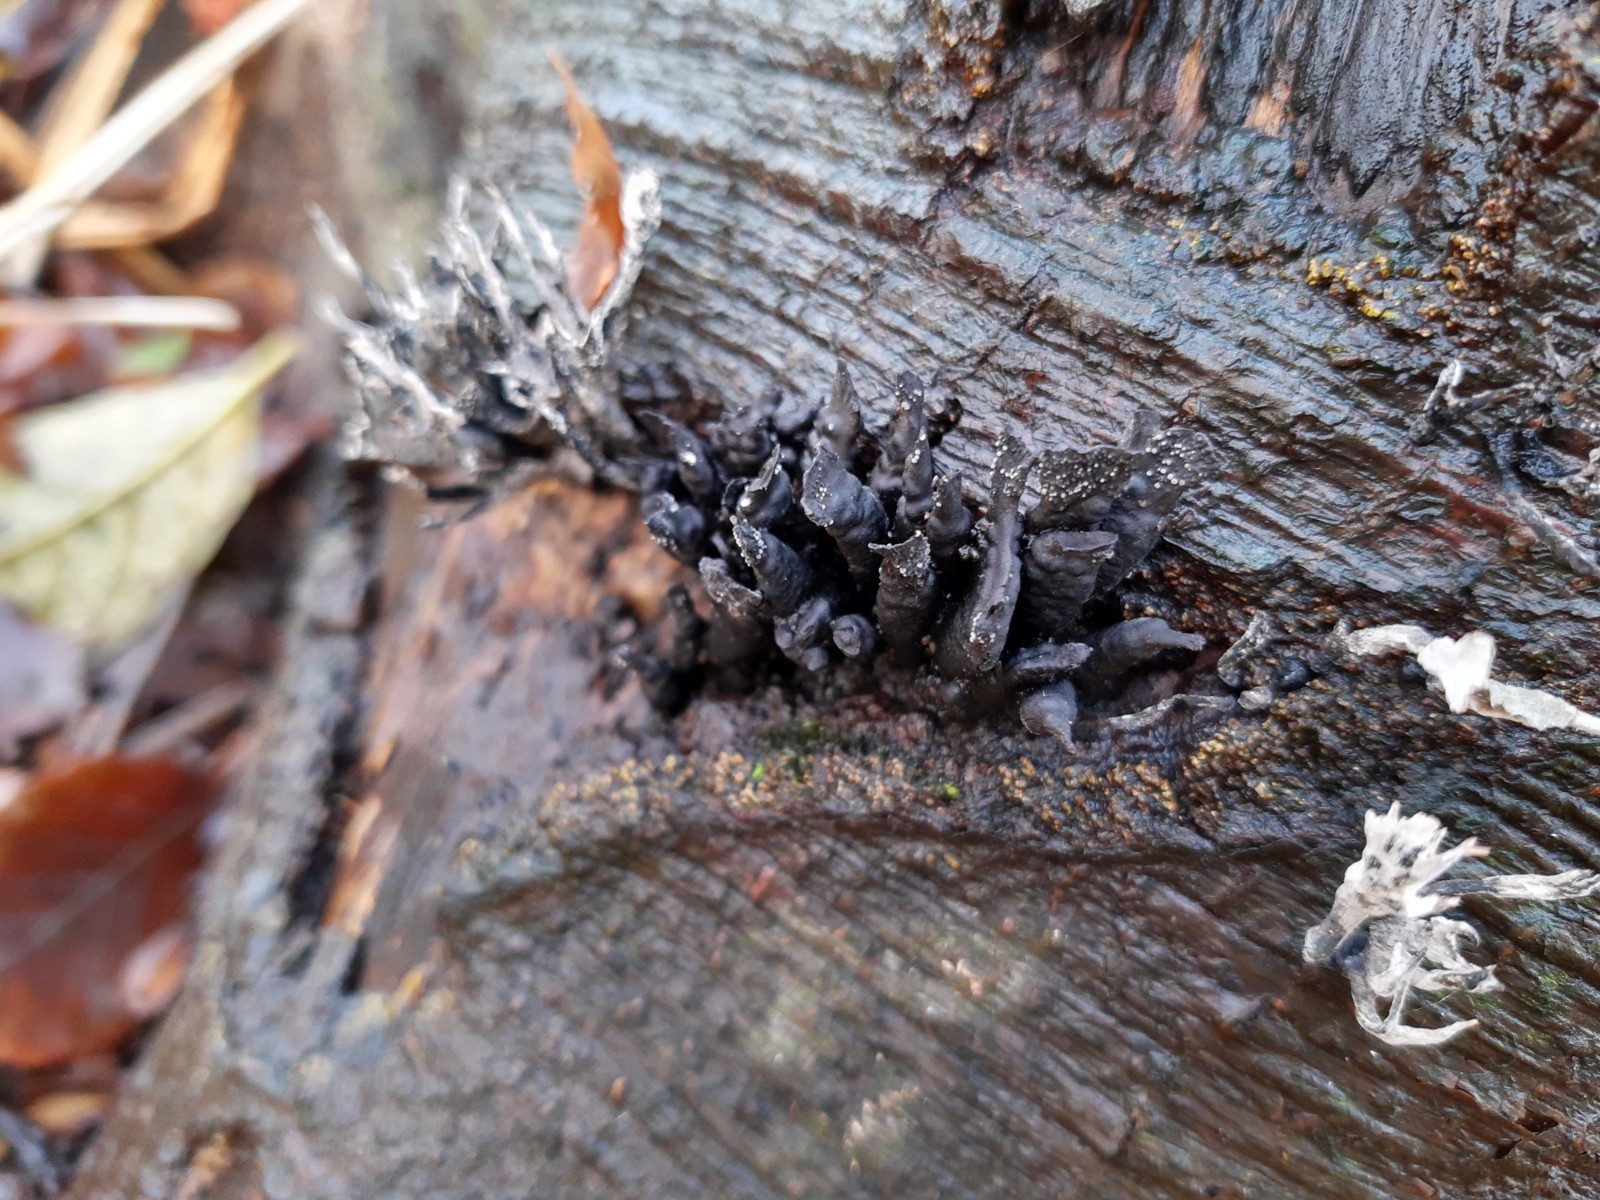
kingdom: Fungi
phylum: Ascomycota
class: Sordariomycetes
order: Xylariales
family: Xylariaceae
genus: Xylaria
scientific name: Xylaria hypoxylon
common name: grenet stødsvamp
